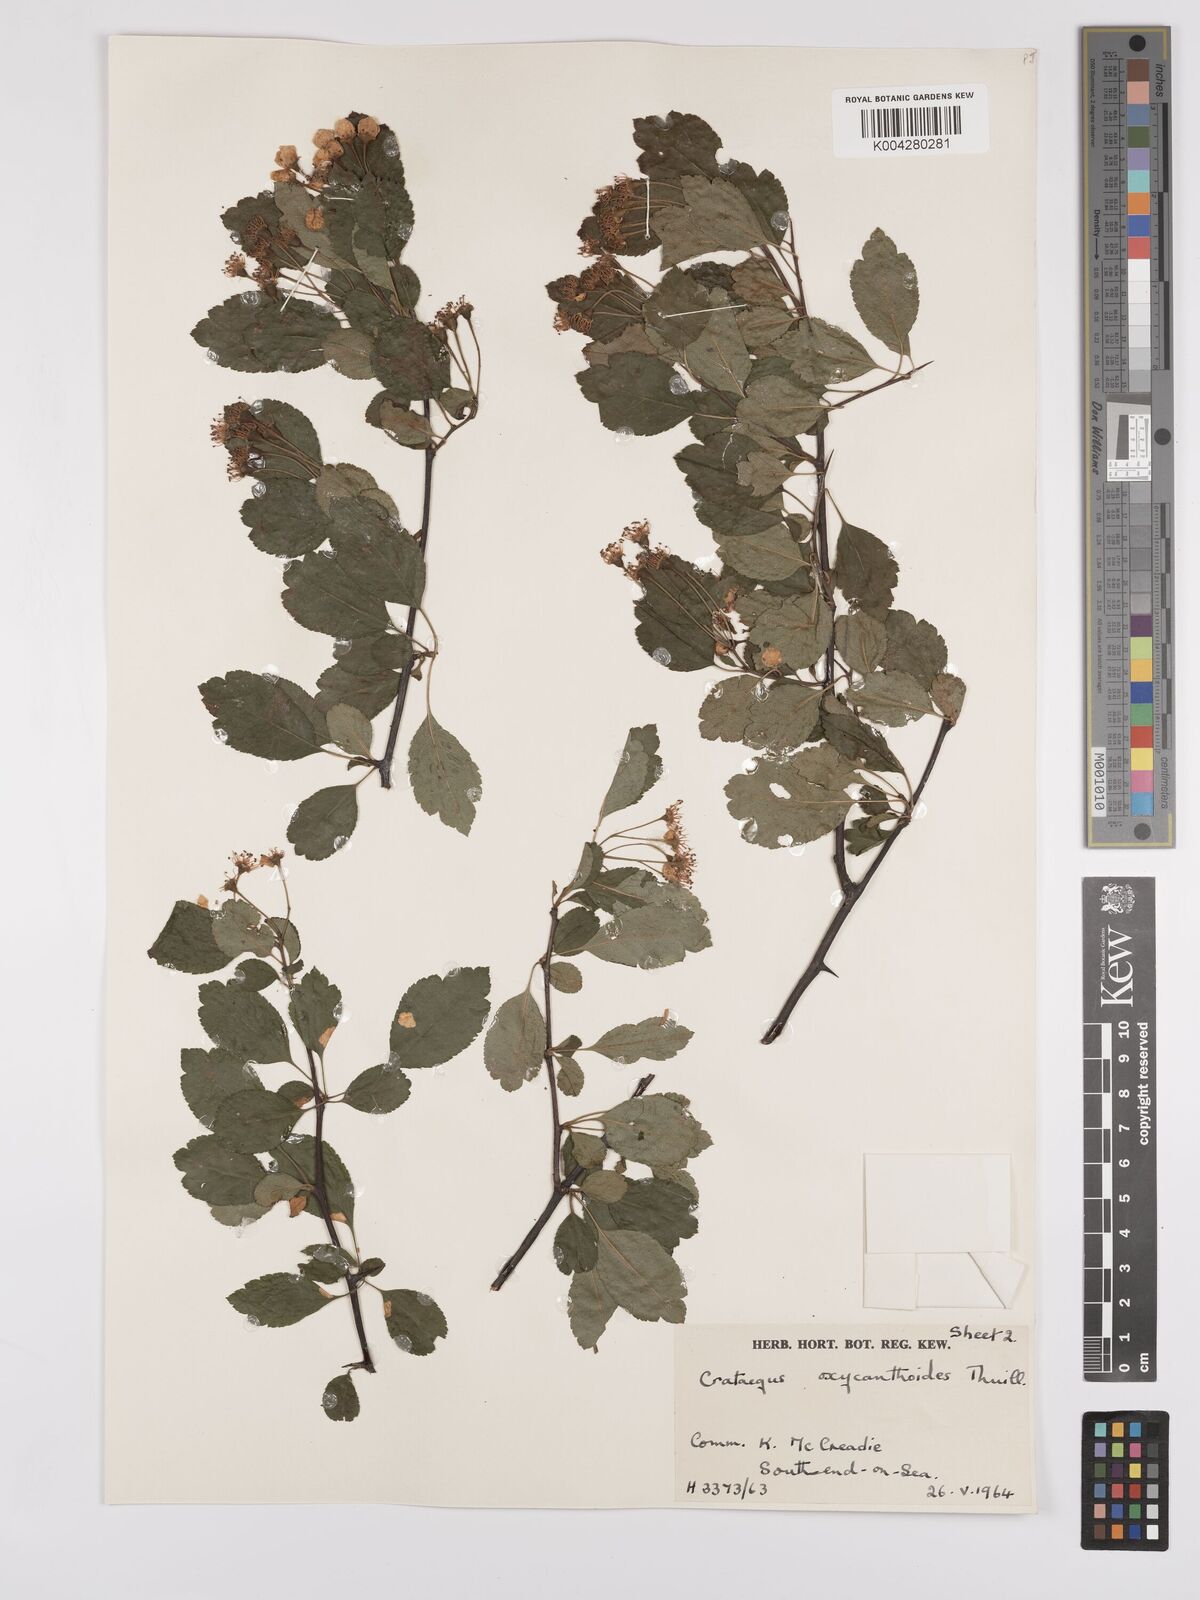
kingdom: Plantae
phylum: Tracheophyta
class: Magnoliopsida
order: Rosales
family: Rosaceae
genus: Crataegus
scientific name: Crataegus laevigata
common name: Midland hawthorn
